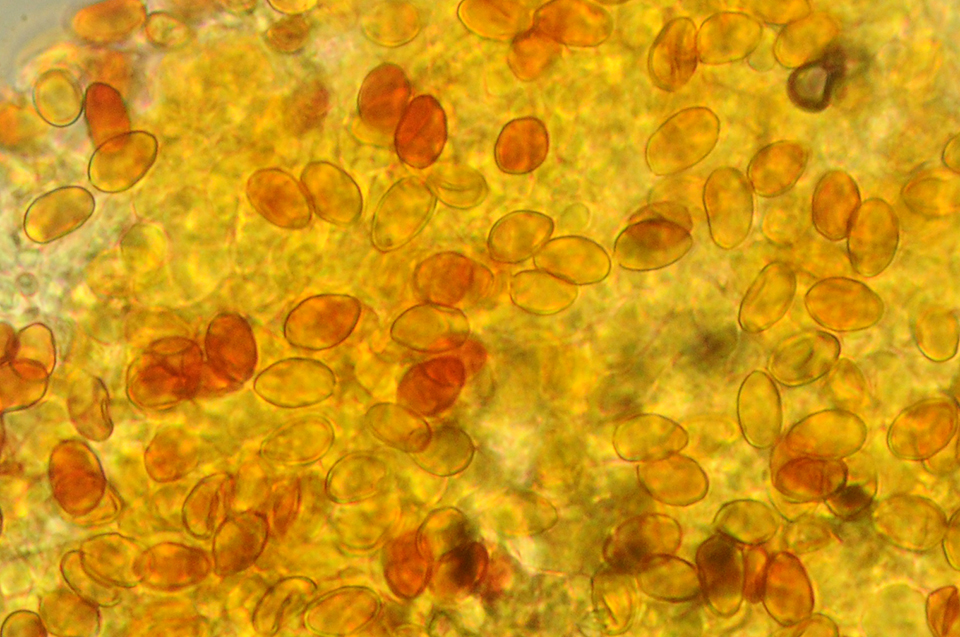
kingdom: Fungi
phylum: Basidiomycota
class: Agaricomycetes
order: Boletales
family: Coniophoraceae
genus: Coniophora
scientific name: Coniophora arida
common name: tynd tømmersvamp
